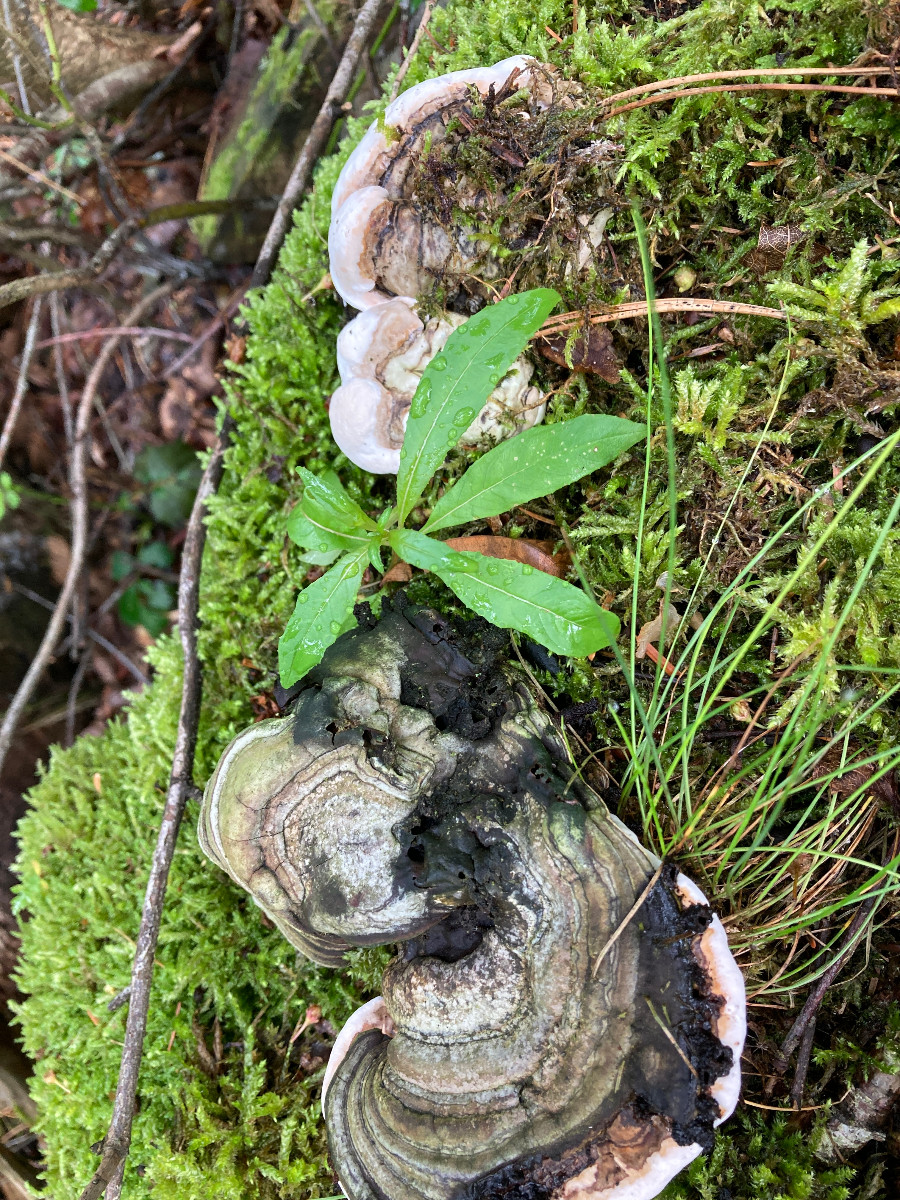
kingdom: Fungi
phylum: Basidiomycota
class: Agaricomycetes
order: Polyporales
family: Polyporaceae
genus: Ganoderma
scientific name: Ganoderma applanatum
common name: flad lakporesvamp
